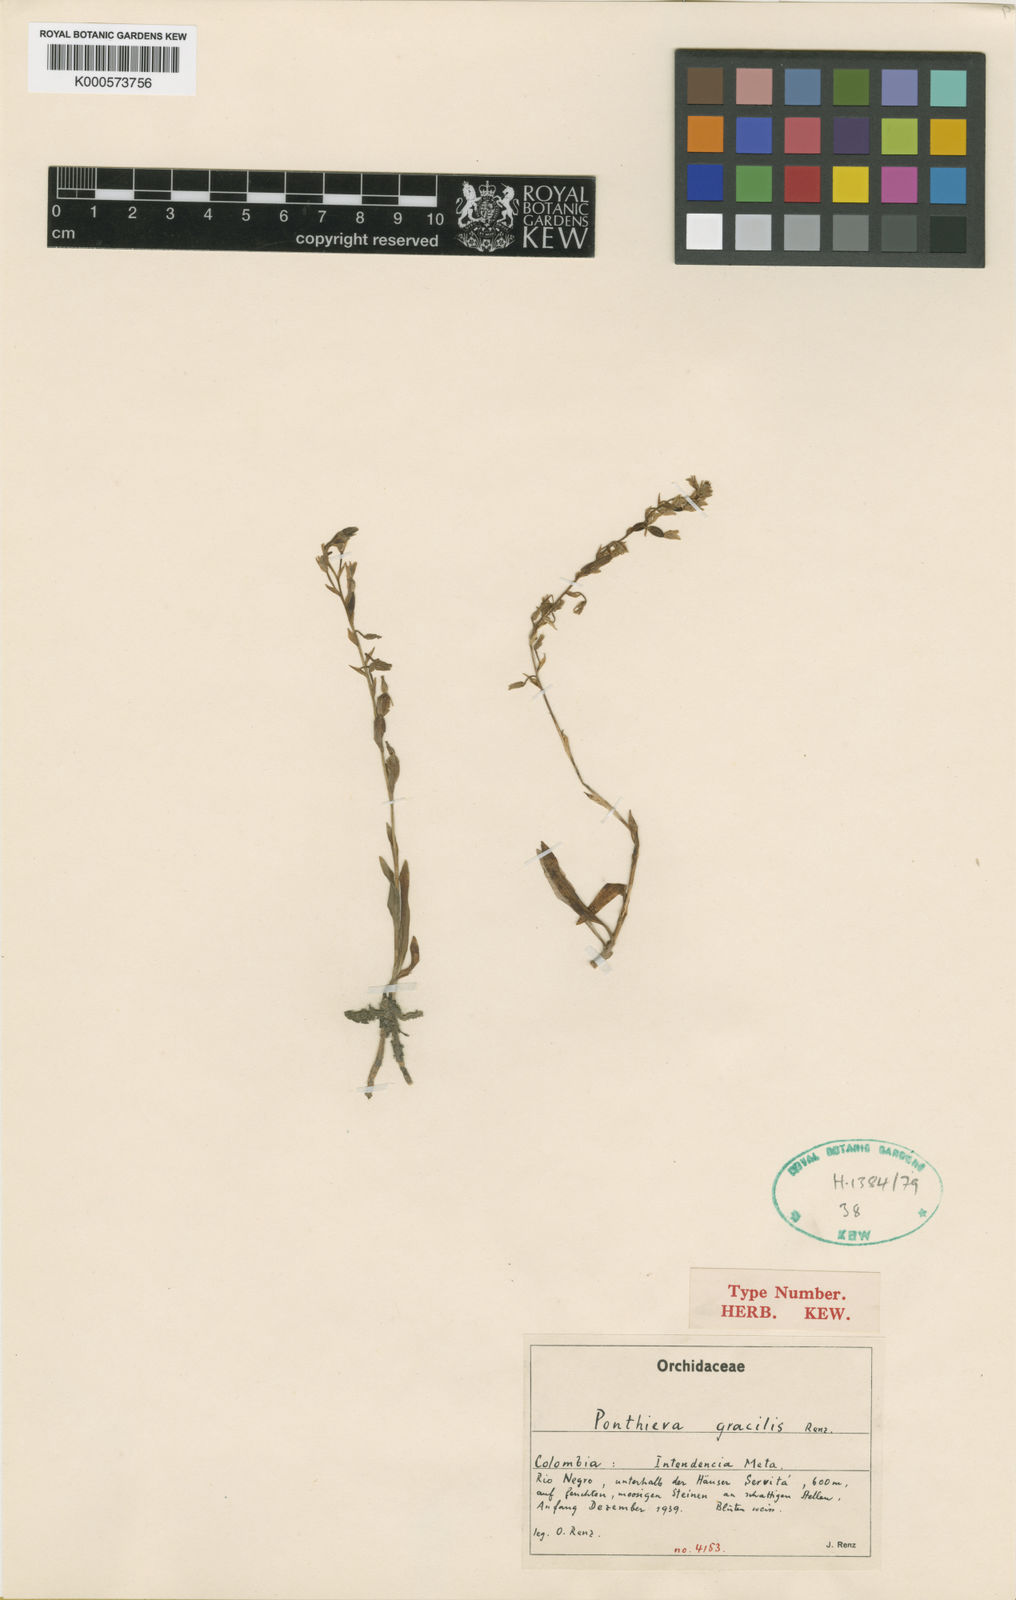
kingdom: Plantae
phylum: Tracheophyta
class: Liliopsida
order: Asparagales
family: Orchidaceae
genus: Ponthieva
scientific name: Ponthieva gracilis
